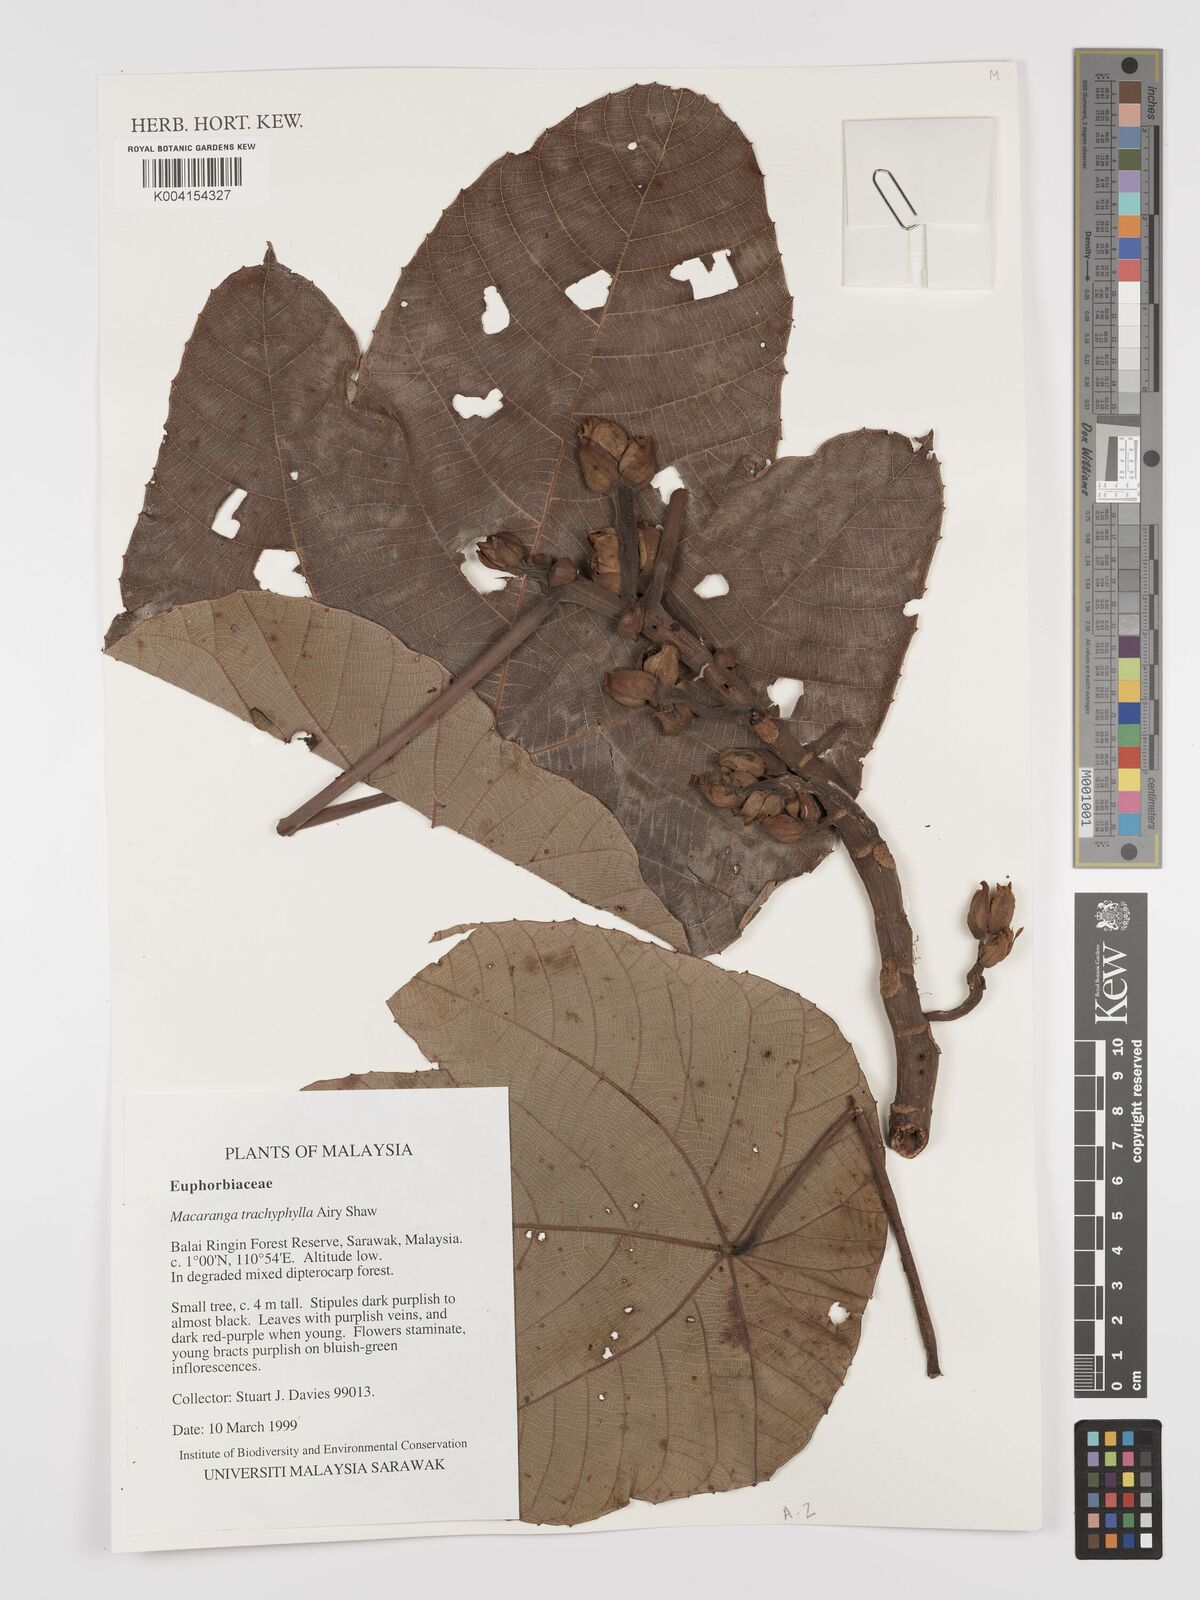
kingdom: Plantae
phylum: Tracheophyta
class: Magnoliopsida
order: Malpighiales
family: Euphorbiaceae
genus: Macaranga
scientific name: Macaranga trachyphylla
